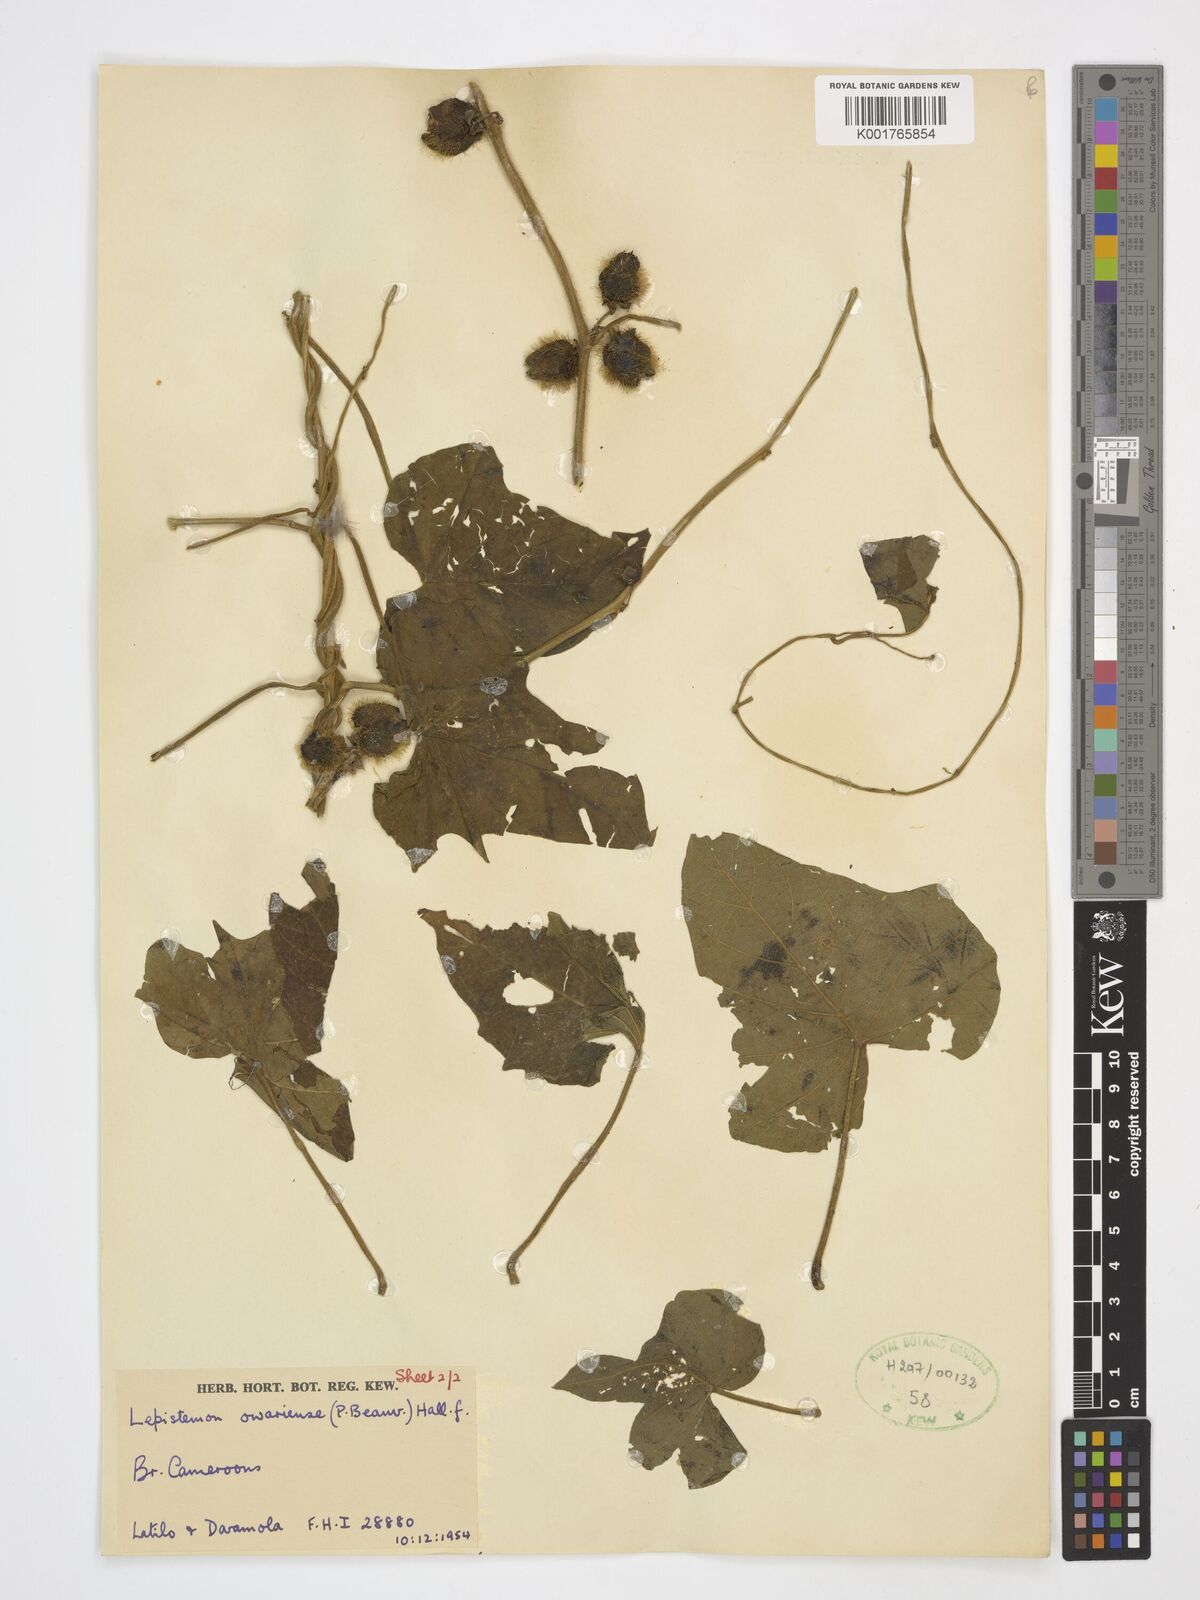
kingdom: Plantae
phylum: Tracheophyta
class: Magnoliopsida
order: Solanales
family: Convolvulaceae
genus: Lepistemon
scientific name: Lepistemon owariensis
